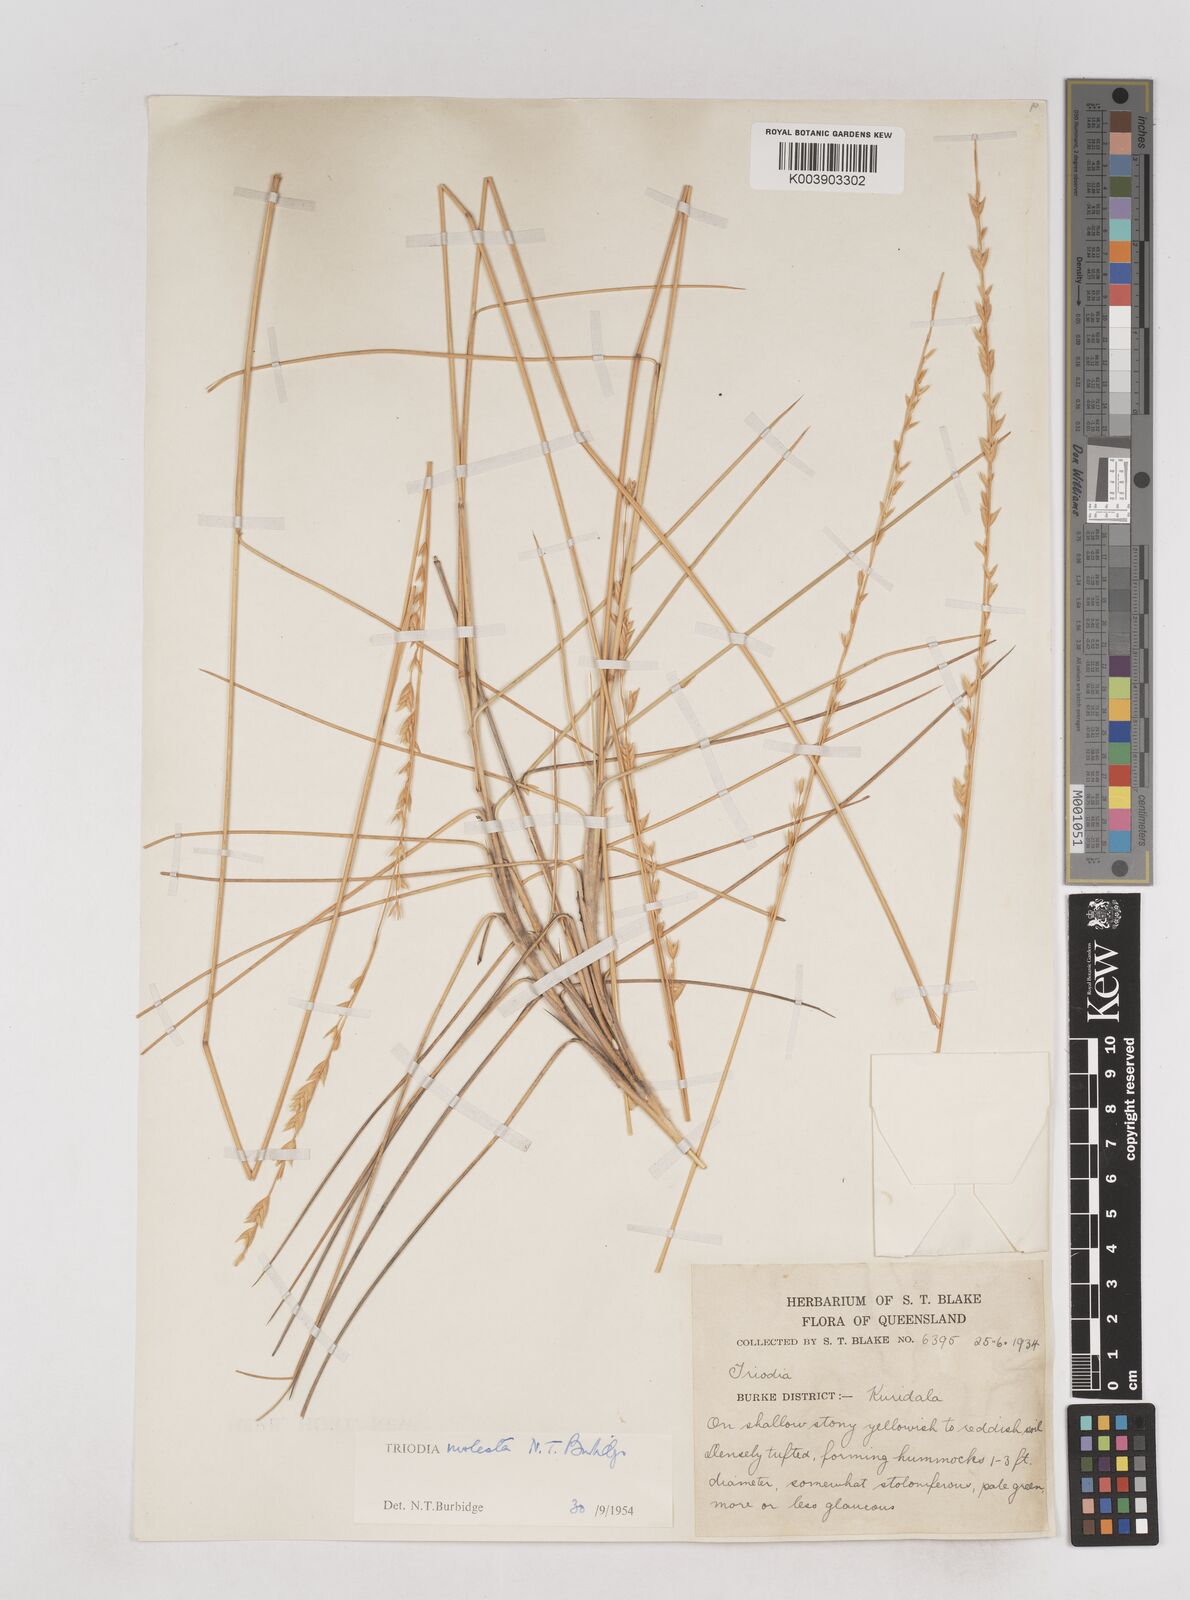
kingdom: Plantae
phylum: Tracheophyta
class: Liliopsida
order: Poales
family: Poaceae
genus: Triodia
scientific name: Triodia molesta
